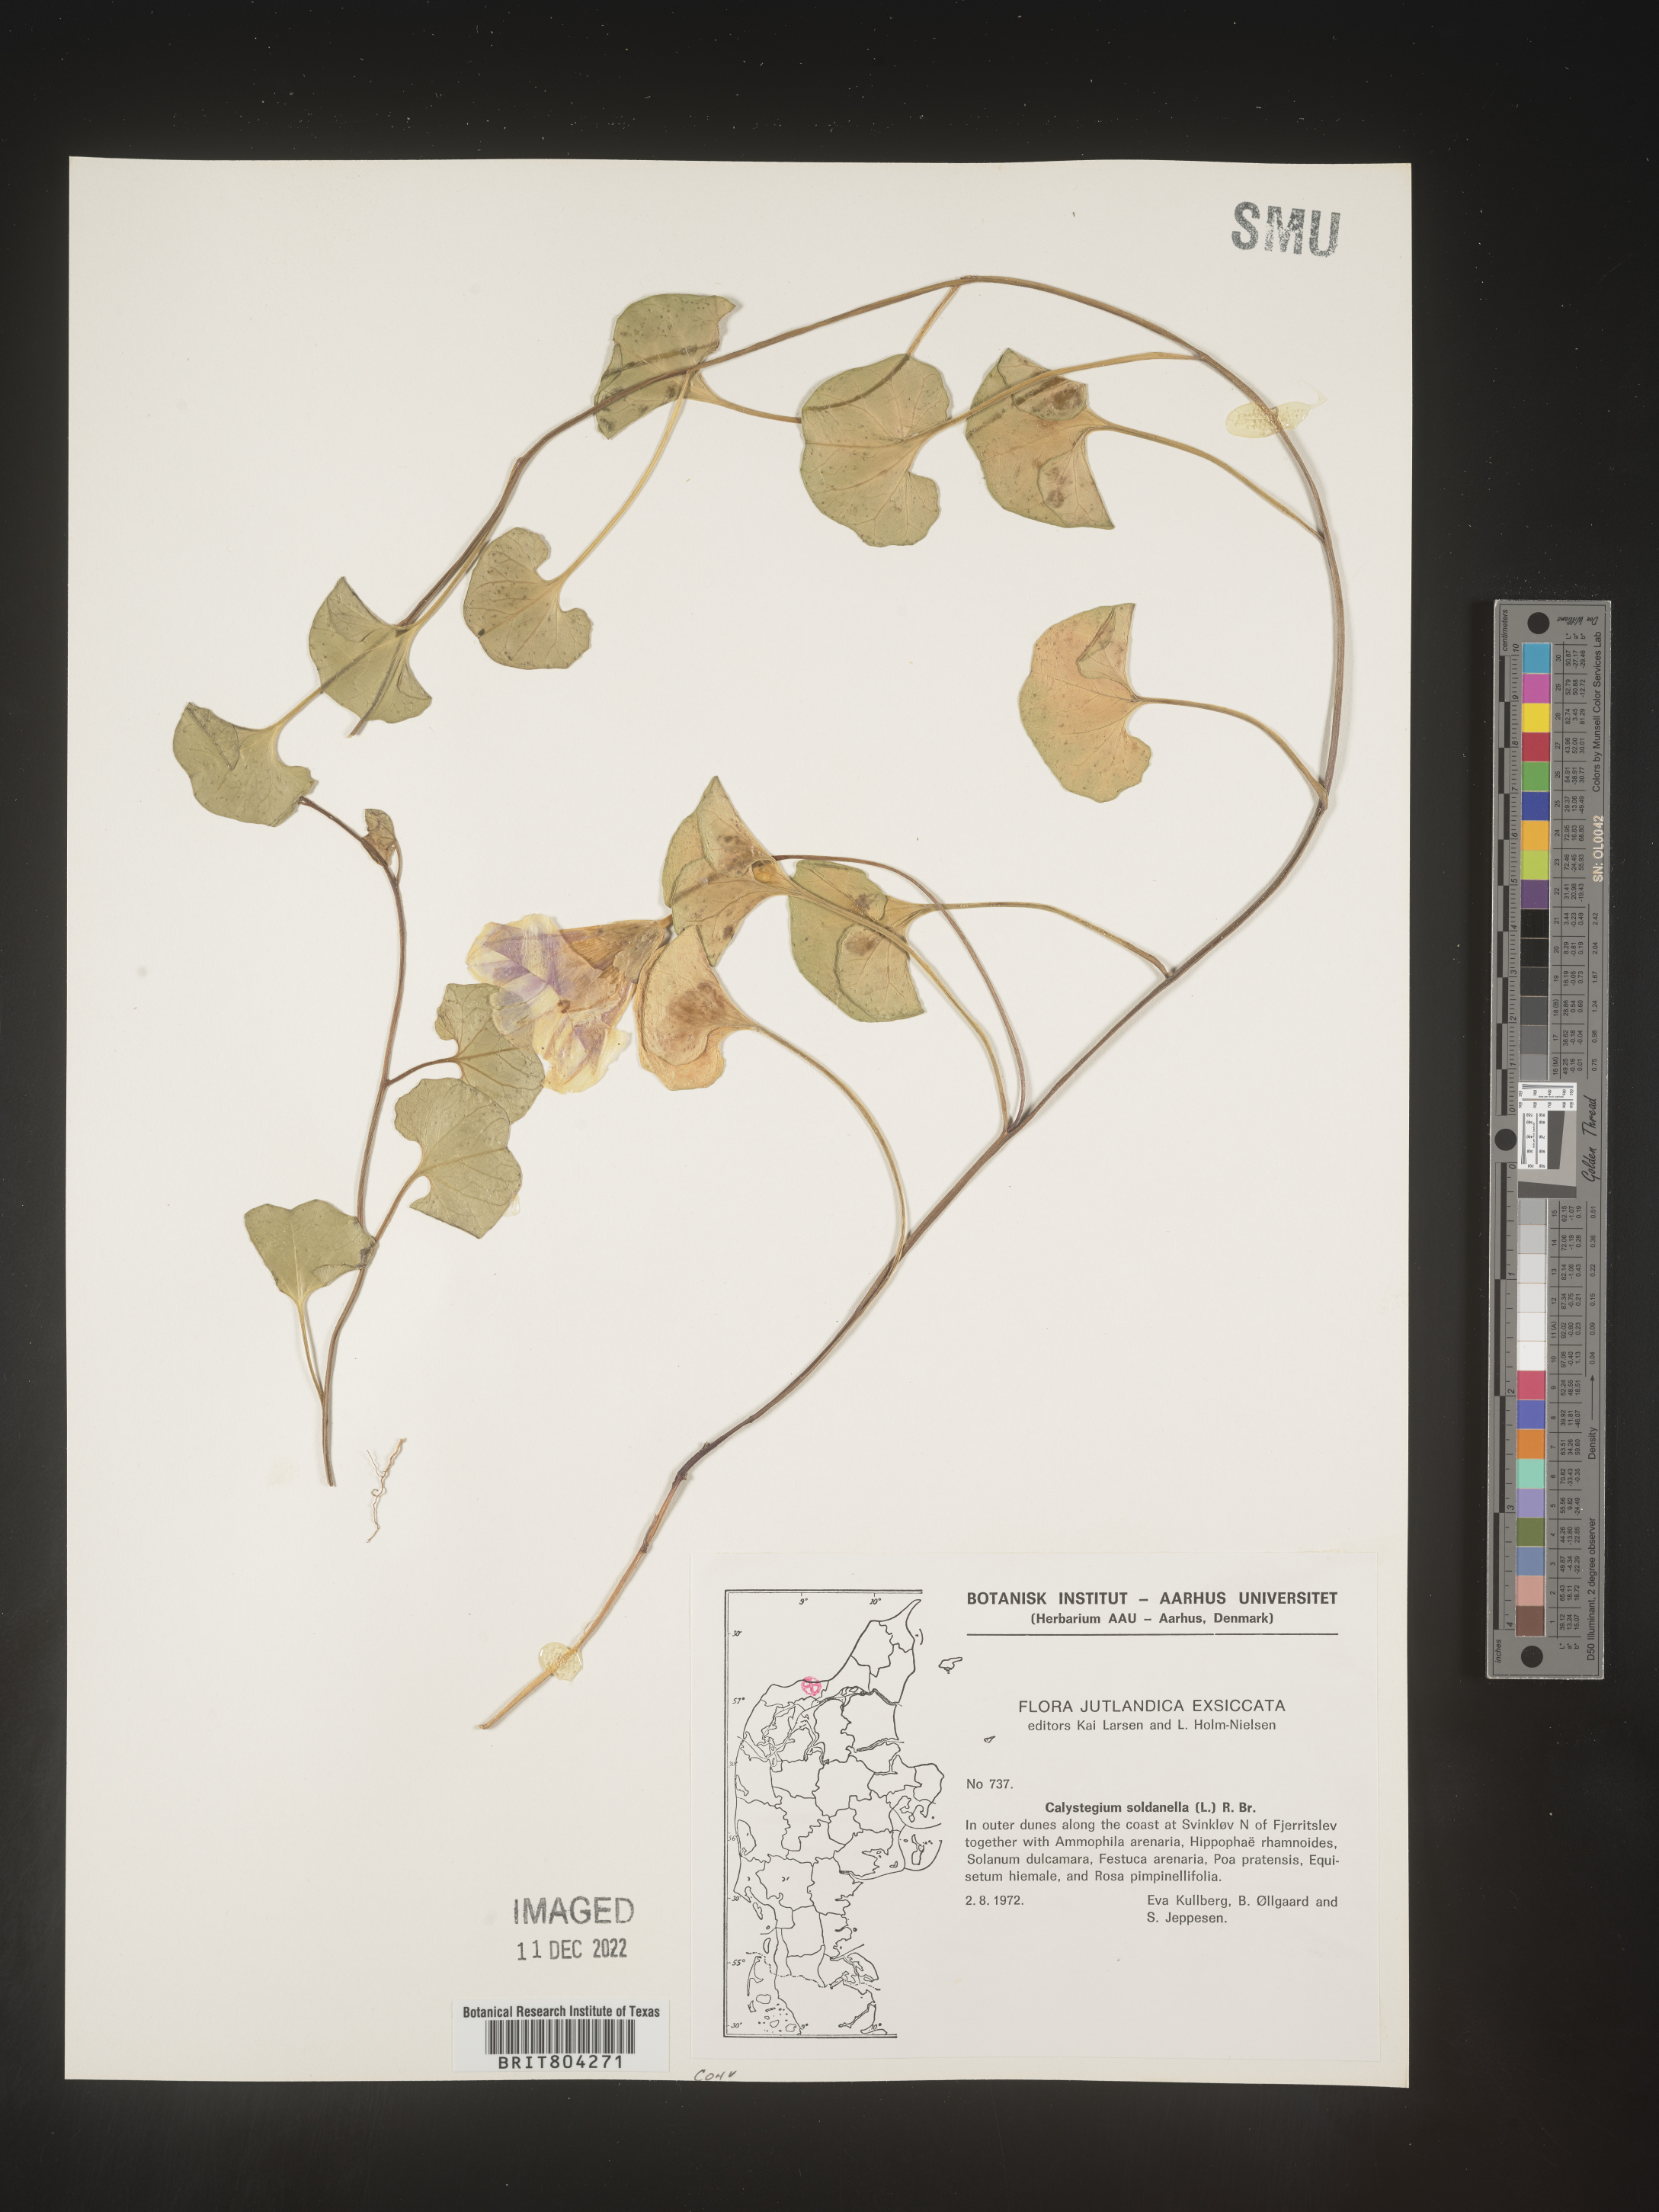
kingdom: Plantae
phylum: Tracheophyta
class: Magnoliopsida
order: Solanales
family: Convolvulaceae
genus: Calystegia
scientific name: Calystegia
